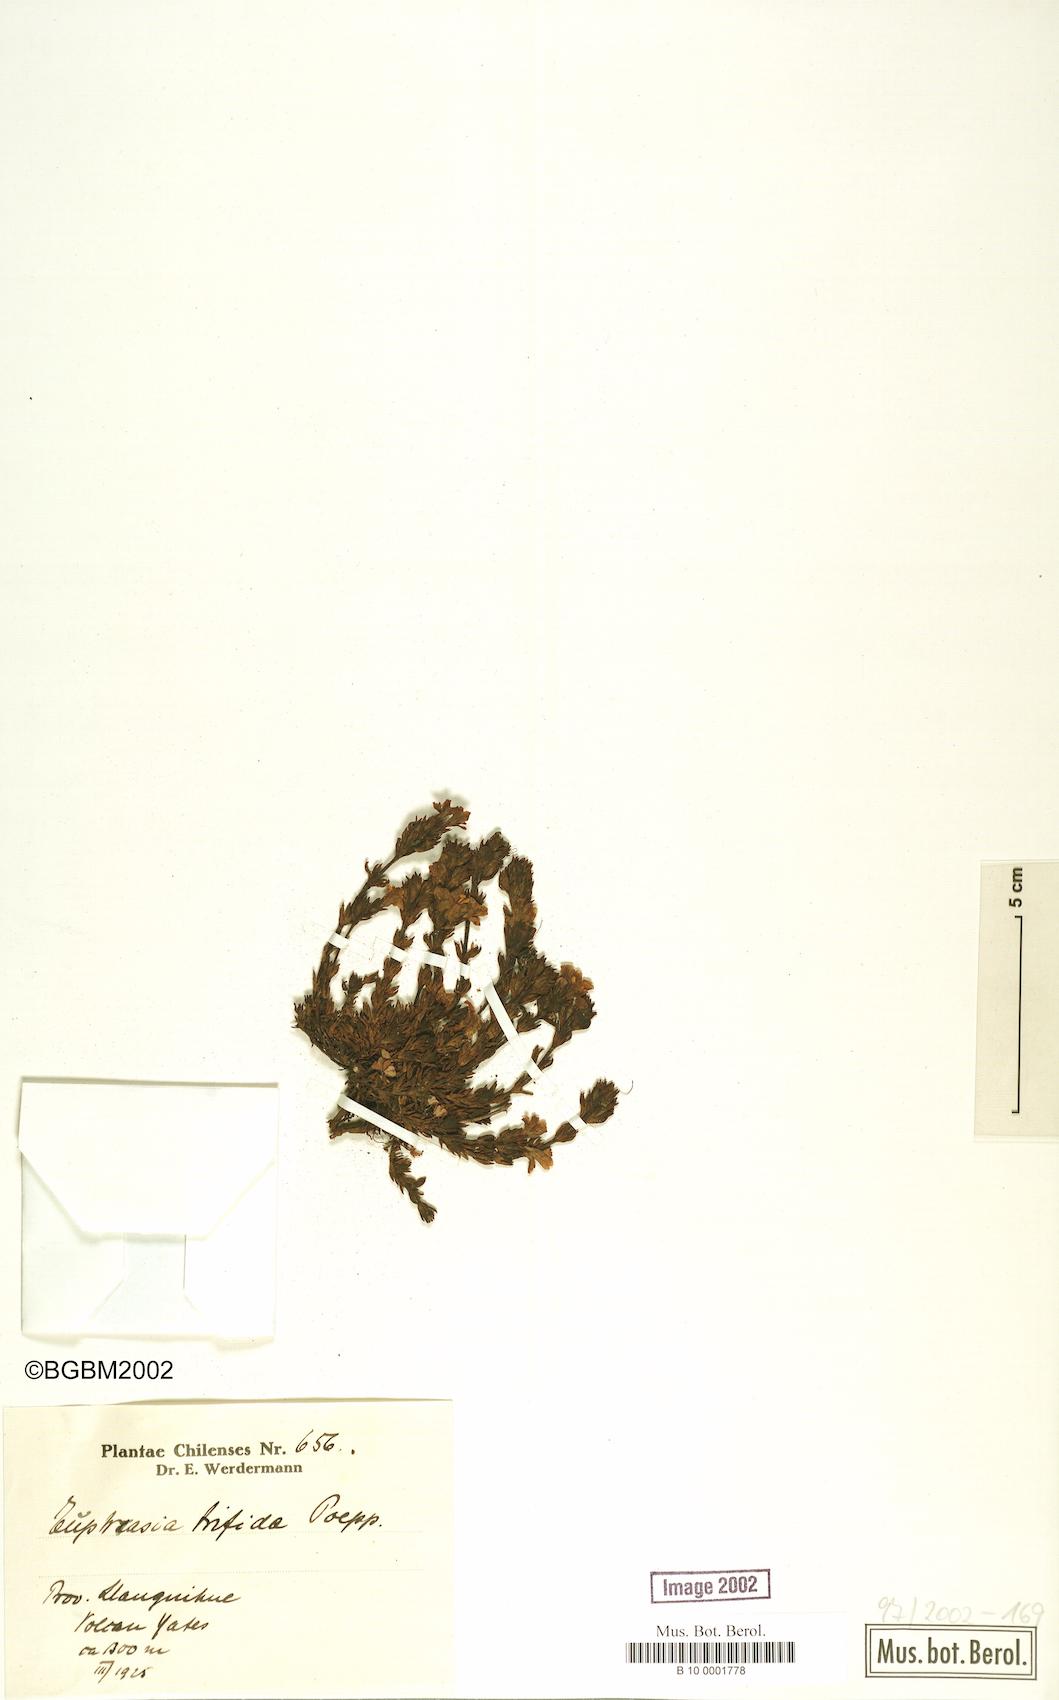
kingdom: Plantae
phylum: Tracheophyta
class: Magnoliopsida
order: Lamiales
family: Orobanchaceae
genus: Euphrasia
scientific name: Euphrasia trifida
